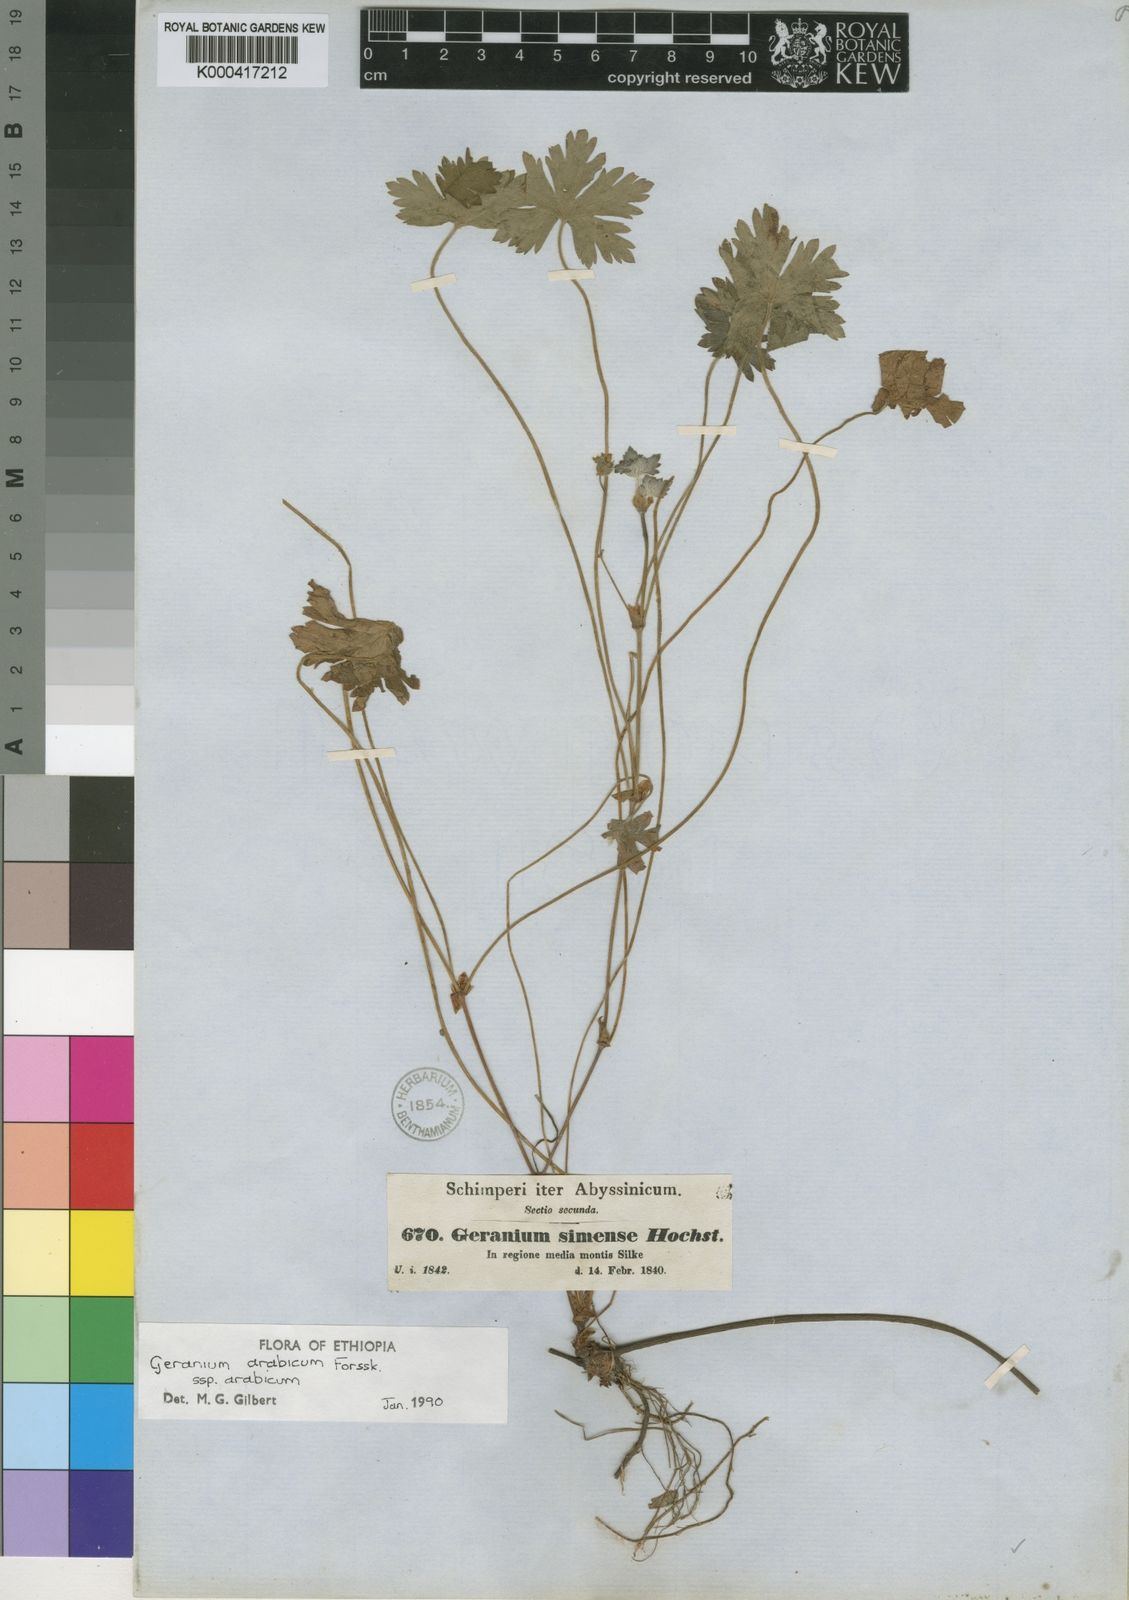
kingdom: Plantae
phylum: Tracheophyta
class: Magnoliopsida
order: Geraniales
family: Geraniaceae
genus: Geranium
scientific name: Geranium arabicum
